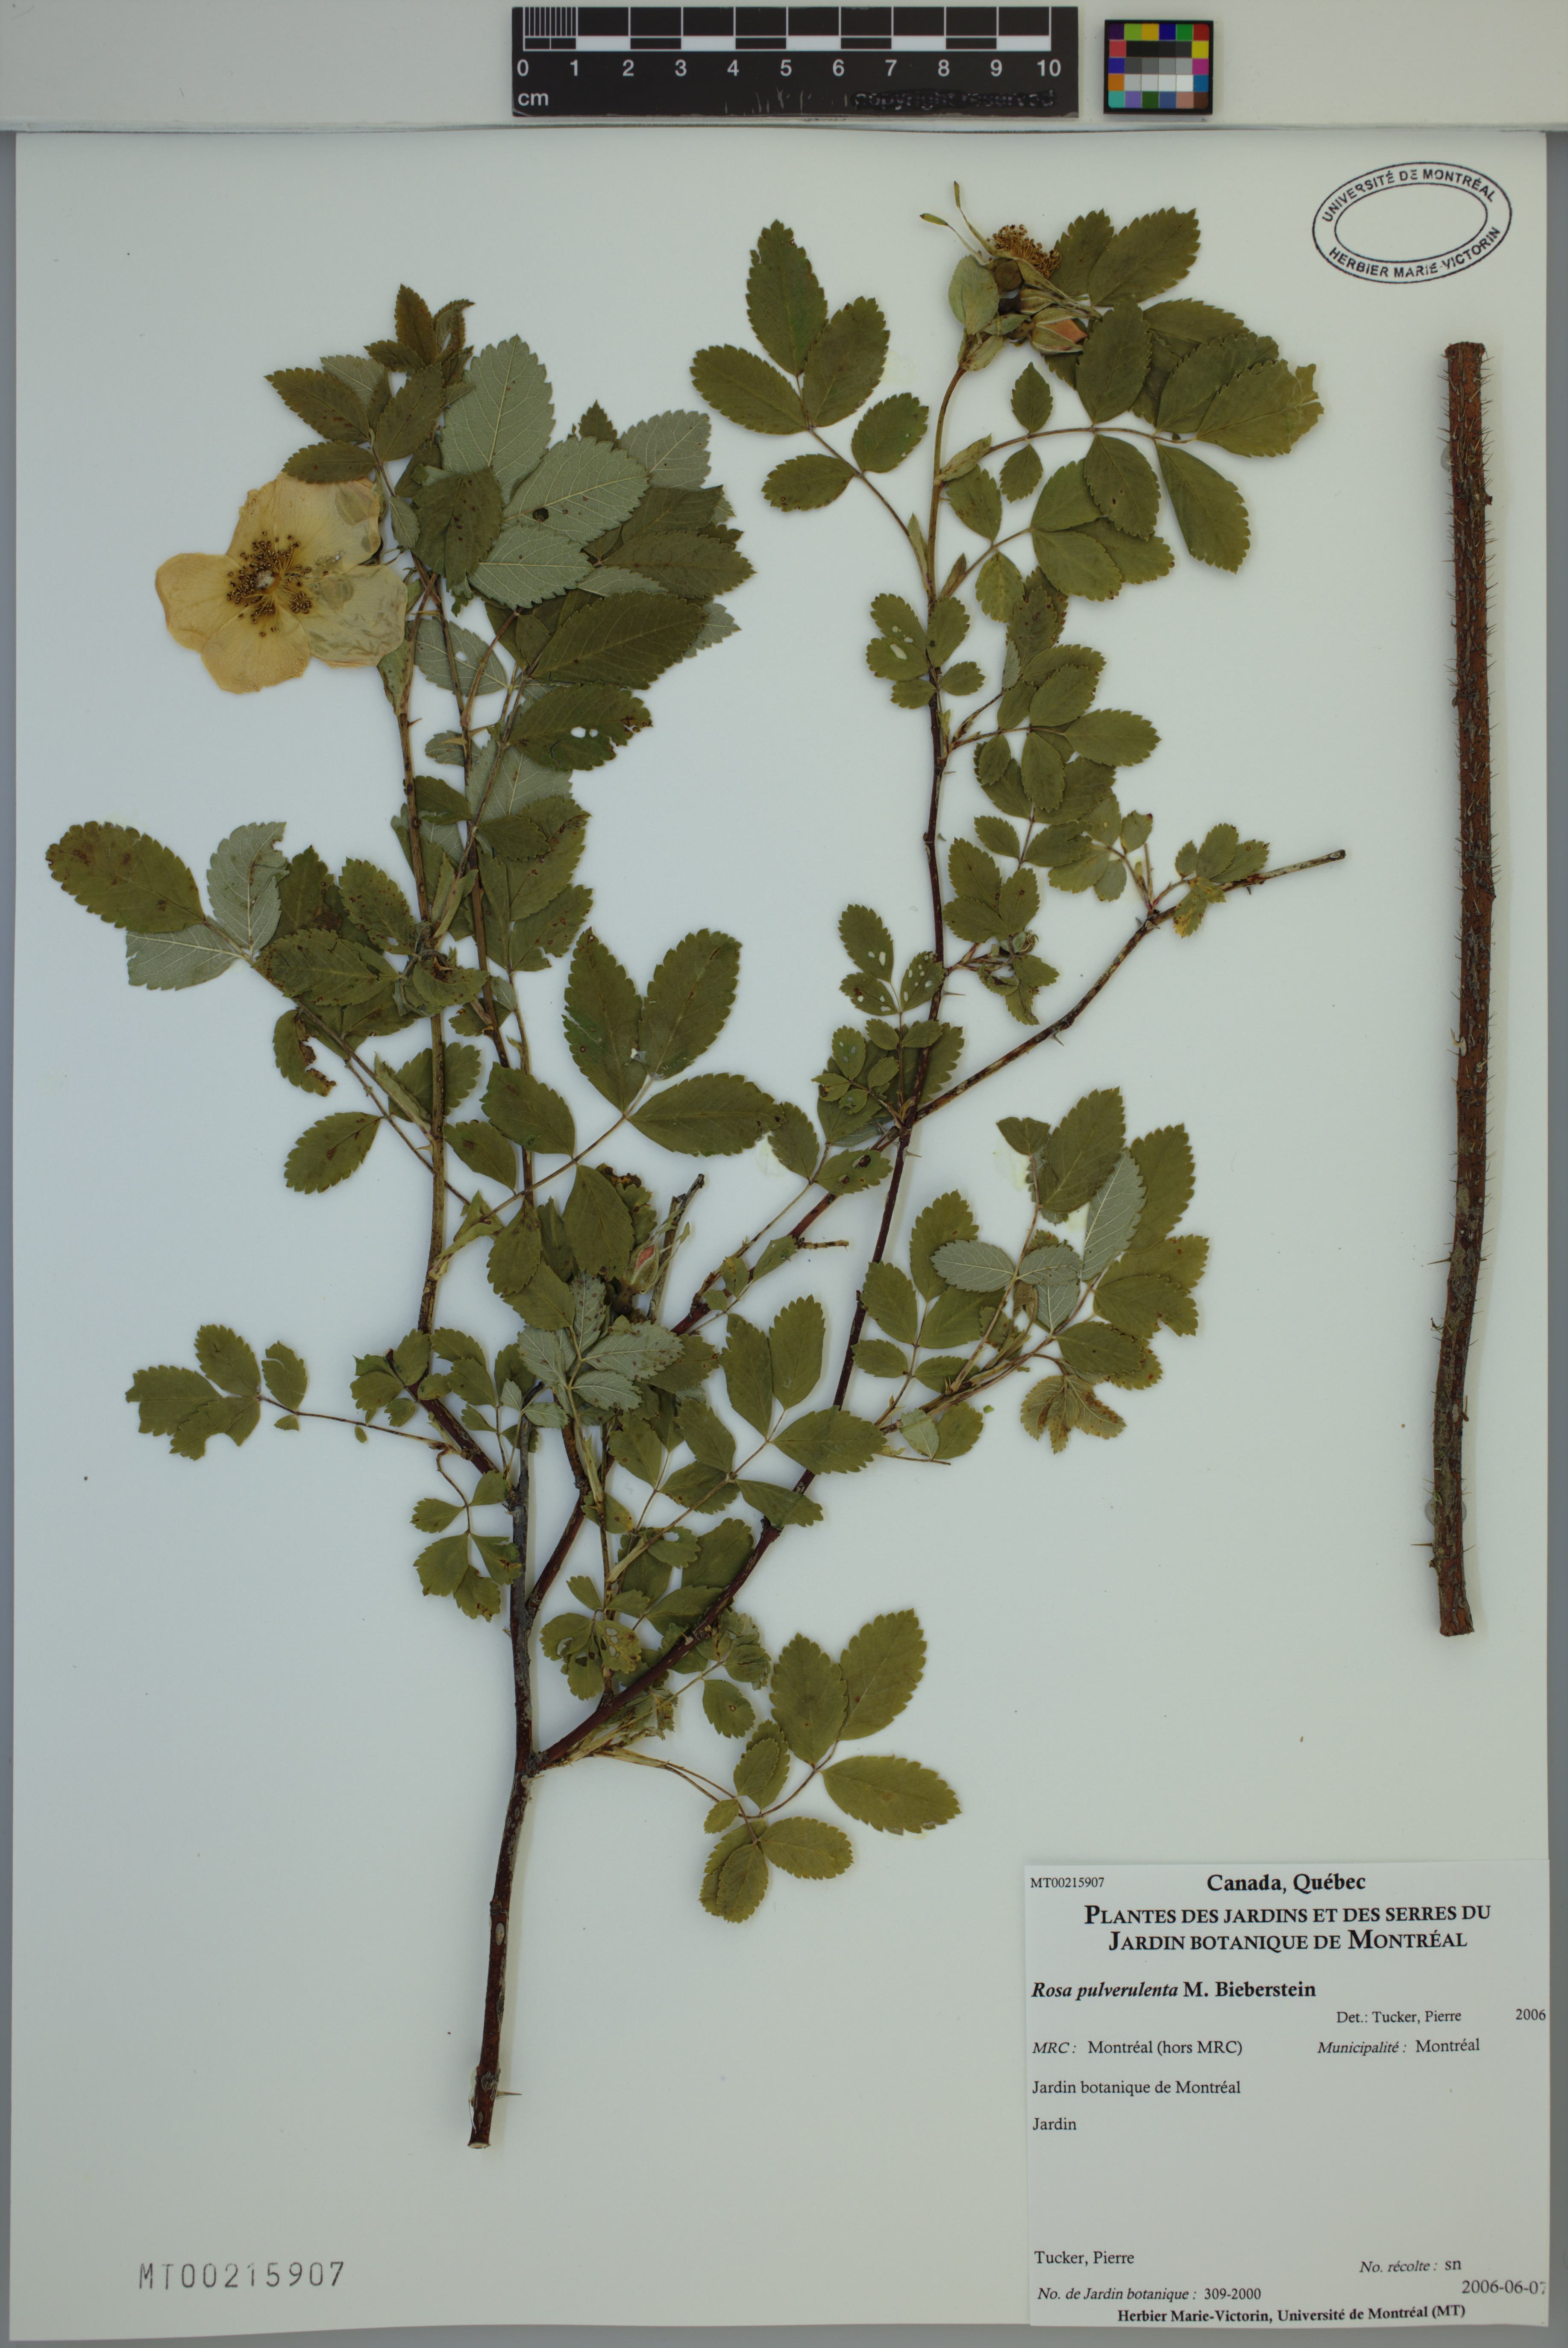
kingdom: Plantae
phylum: Tracheophyta
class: Magnoliopsida
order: Rosales
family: Rosaceae
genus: Rosa
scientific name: Rosa pulverulenta
